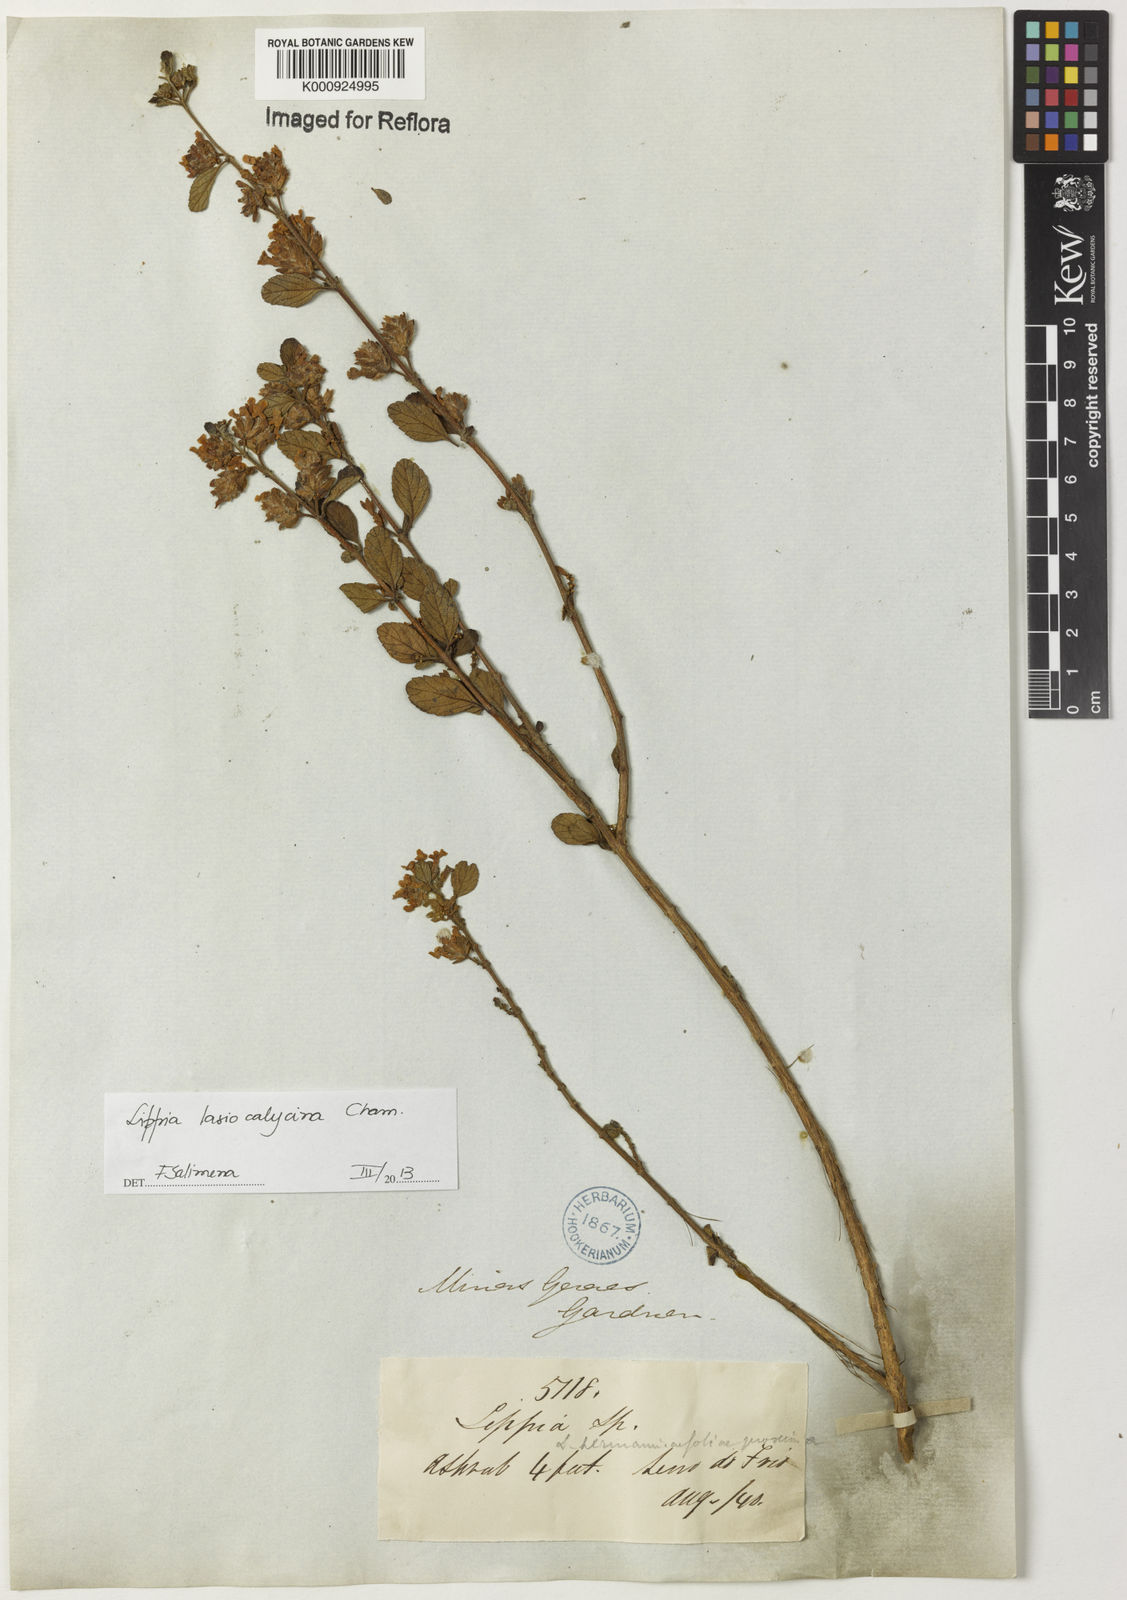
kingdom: Plantae
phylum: Tracheophyta
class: Magnoliopsida
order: Lamiales
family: Verbenaceae
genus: Lippia
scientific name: Lippia lasiocalycina
